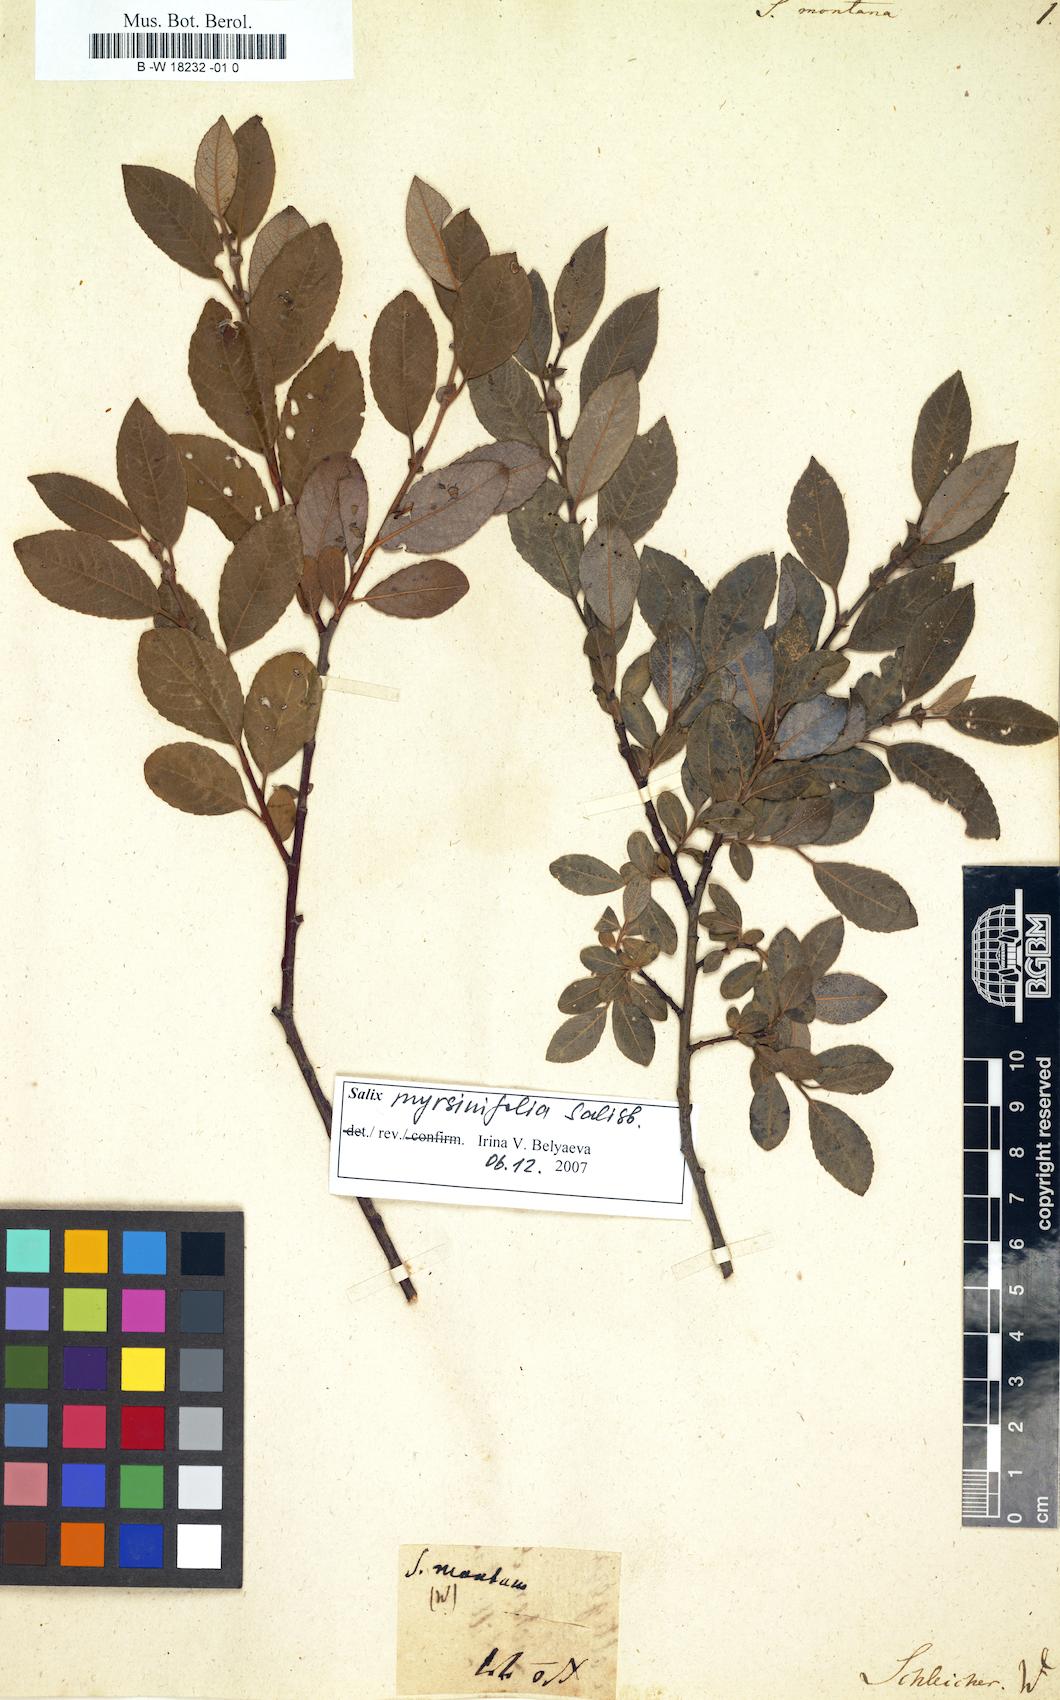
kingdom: Plantae
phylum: Tracheophyta
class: Magnoliopsida
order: Malpighiales
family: Salicaceae
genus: Salix
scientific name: Salix montana
